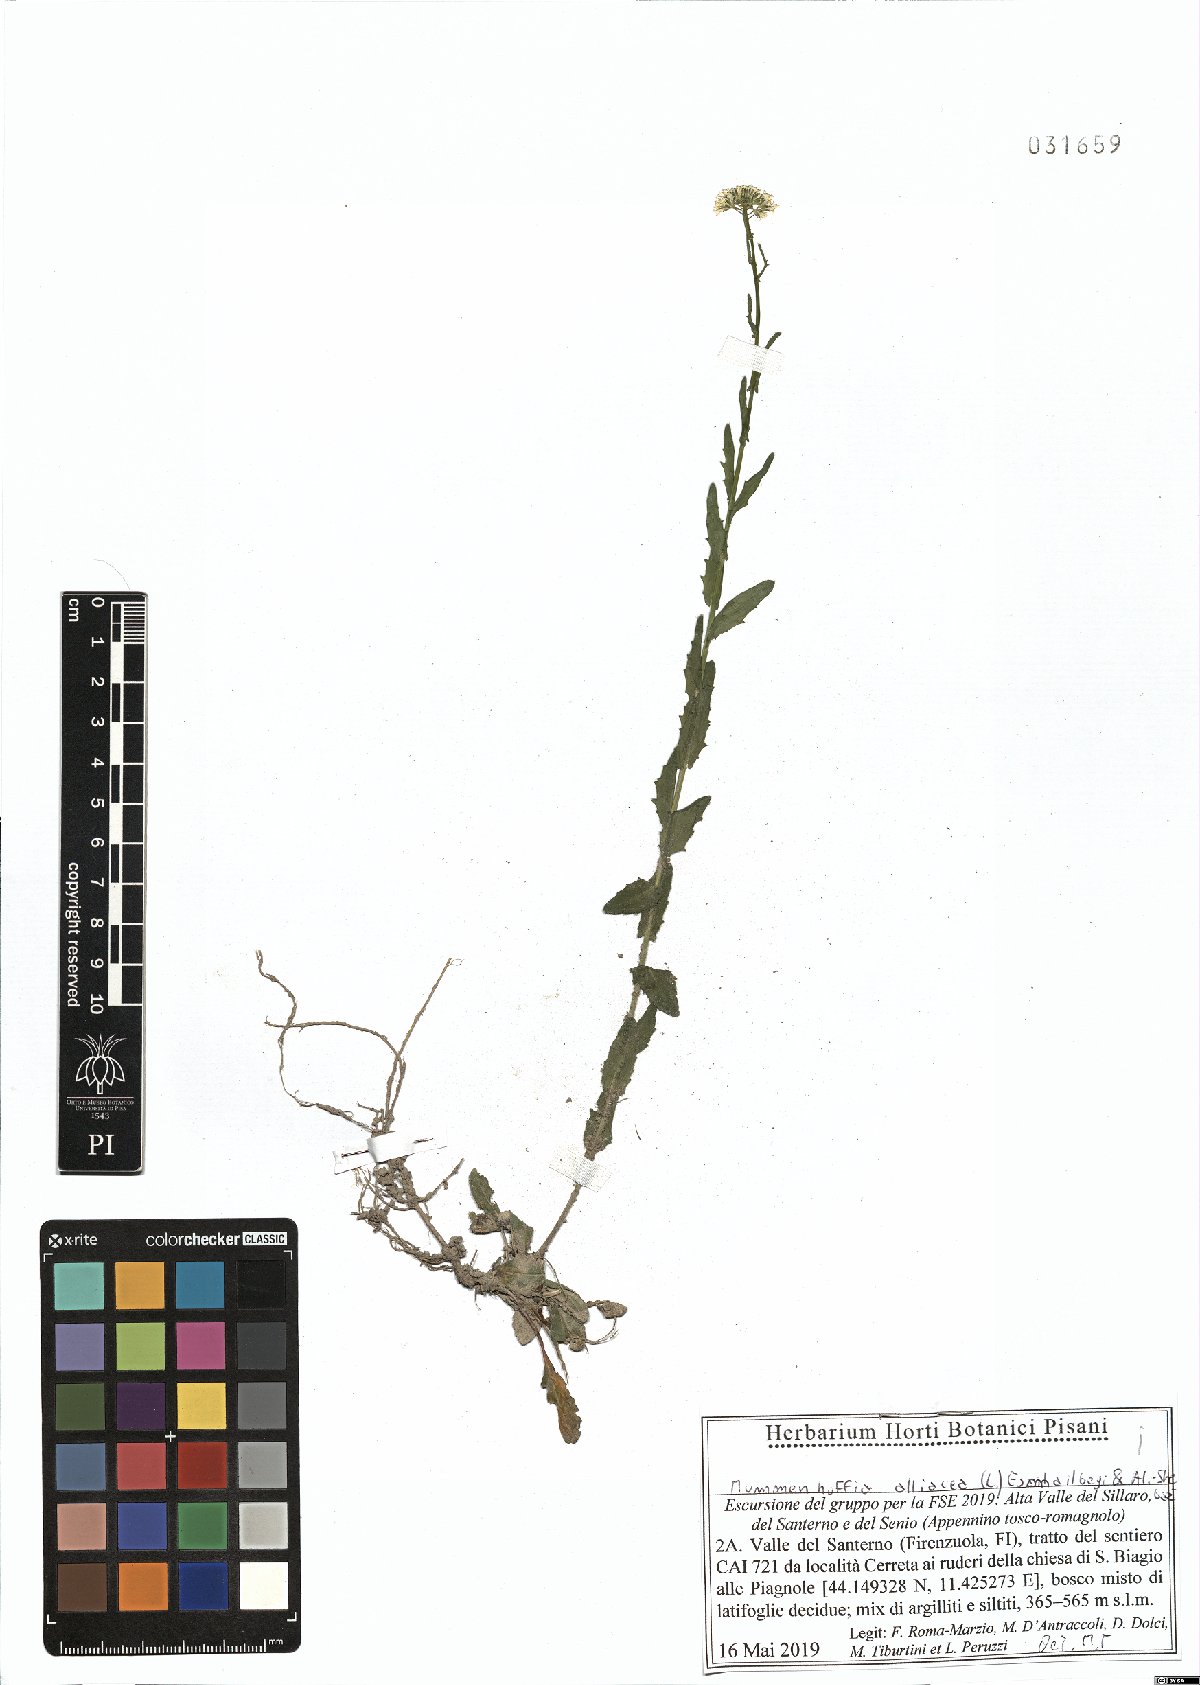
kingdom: Plantae
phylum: Tracheophyta
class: Magnoliopsida
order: Brassicales
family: Brassicaceae
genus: Mummenhoffia
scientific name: Mummenhoffia alliacea
